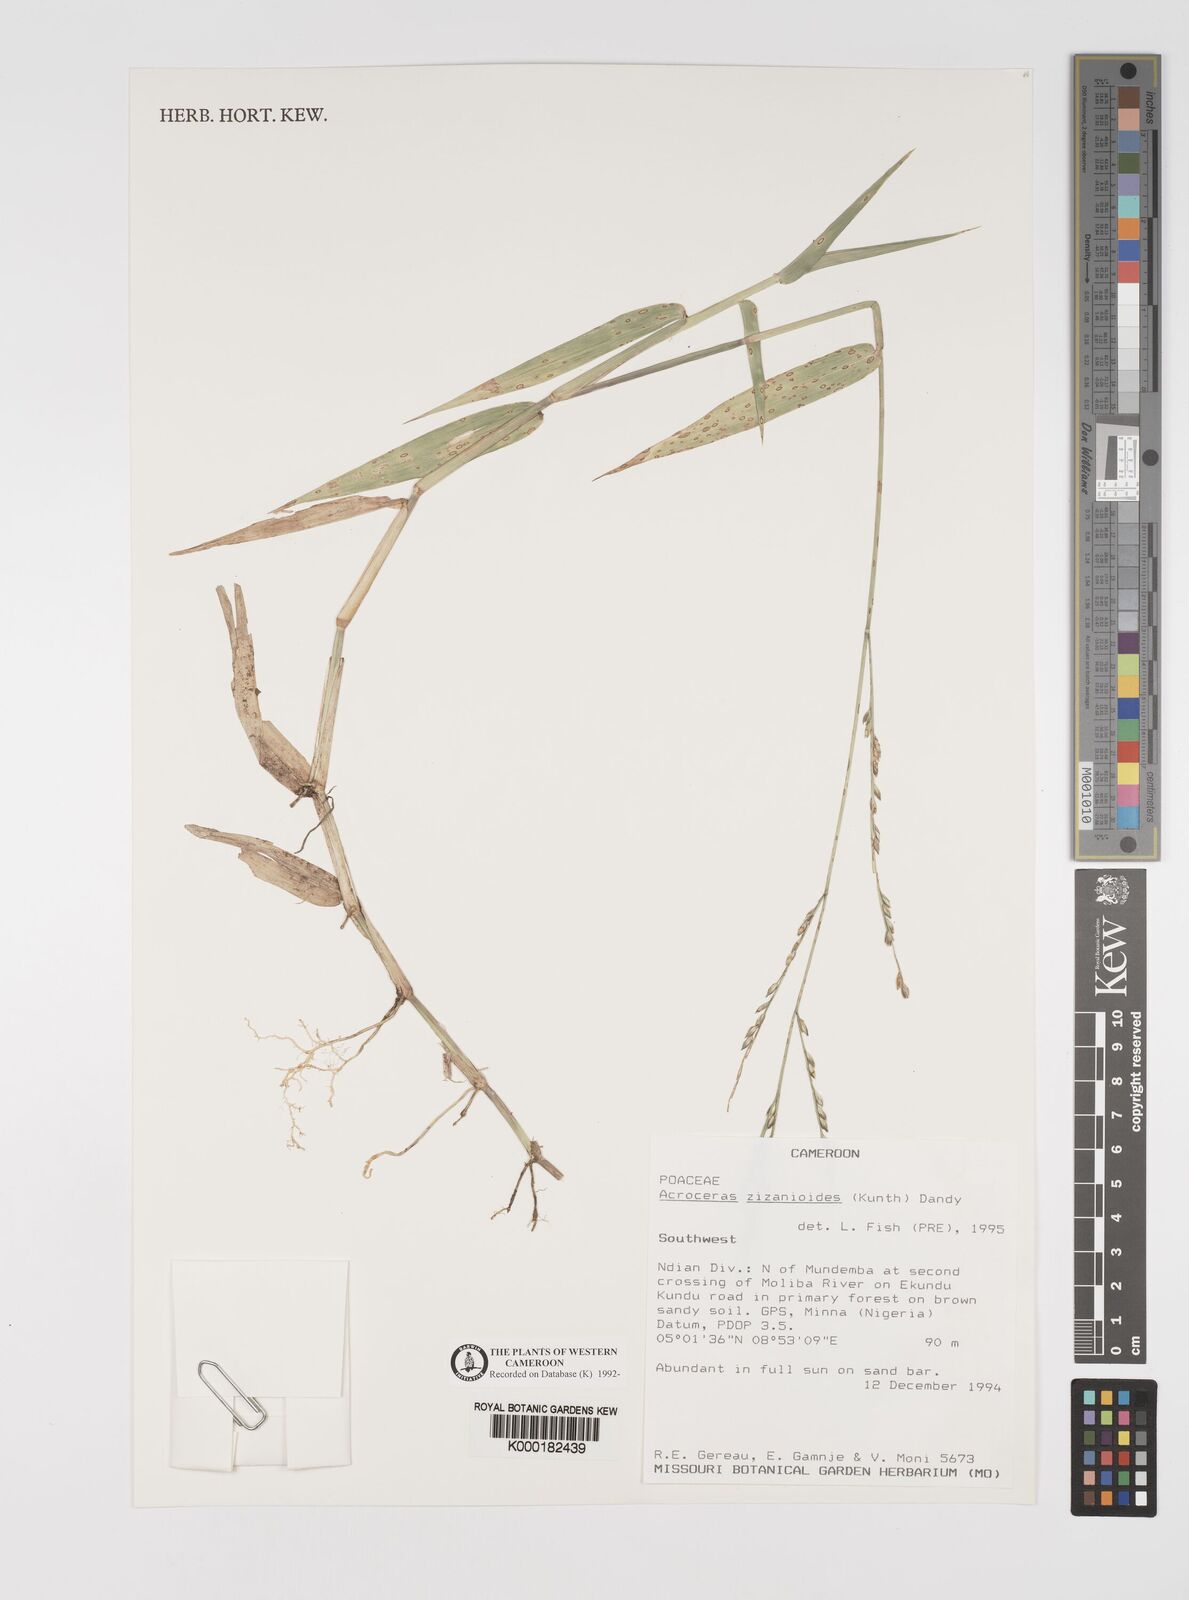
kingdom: Plantae
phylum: Tracheophyta
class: Liliopsida
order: Poales
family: Poaceae
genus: Acroceras
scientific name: Acroceras zizanioides
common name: Oat grass
